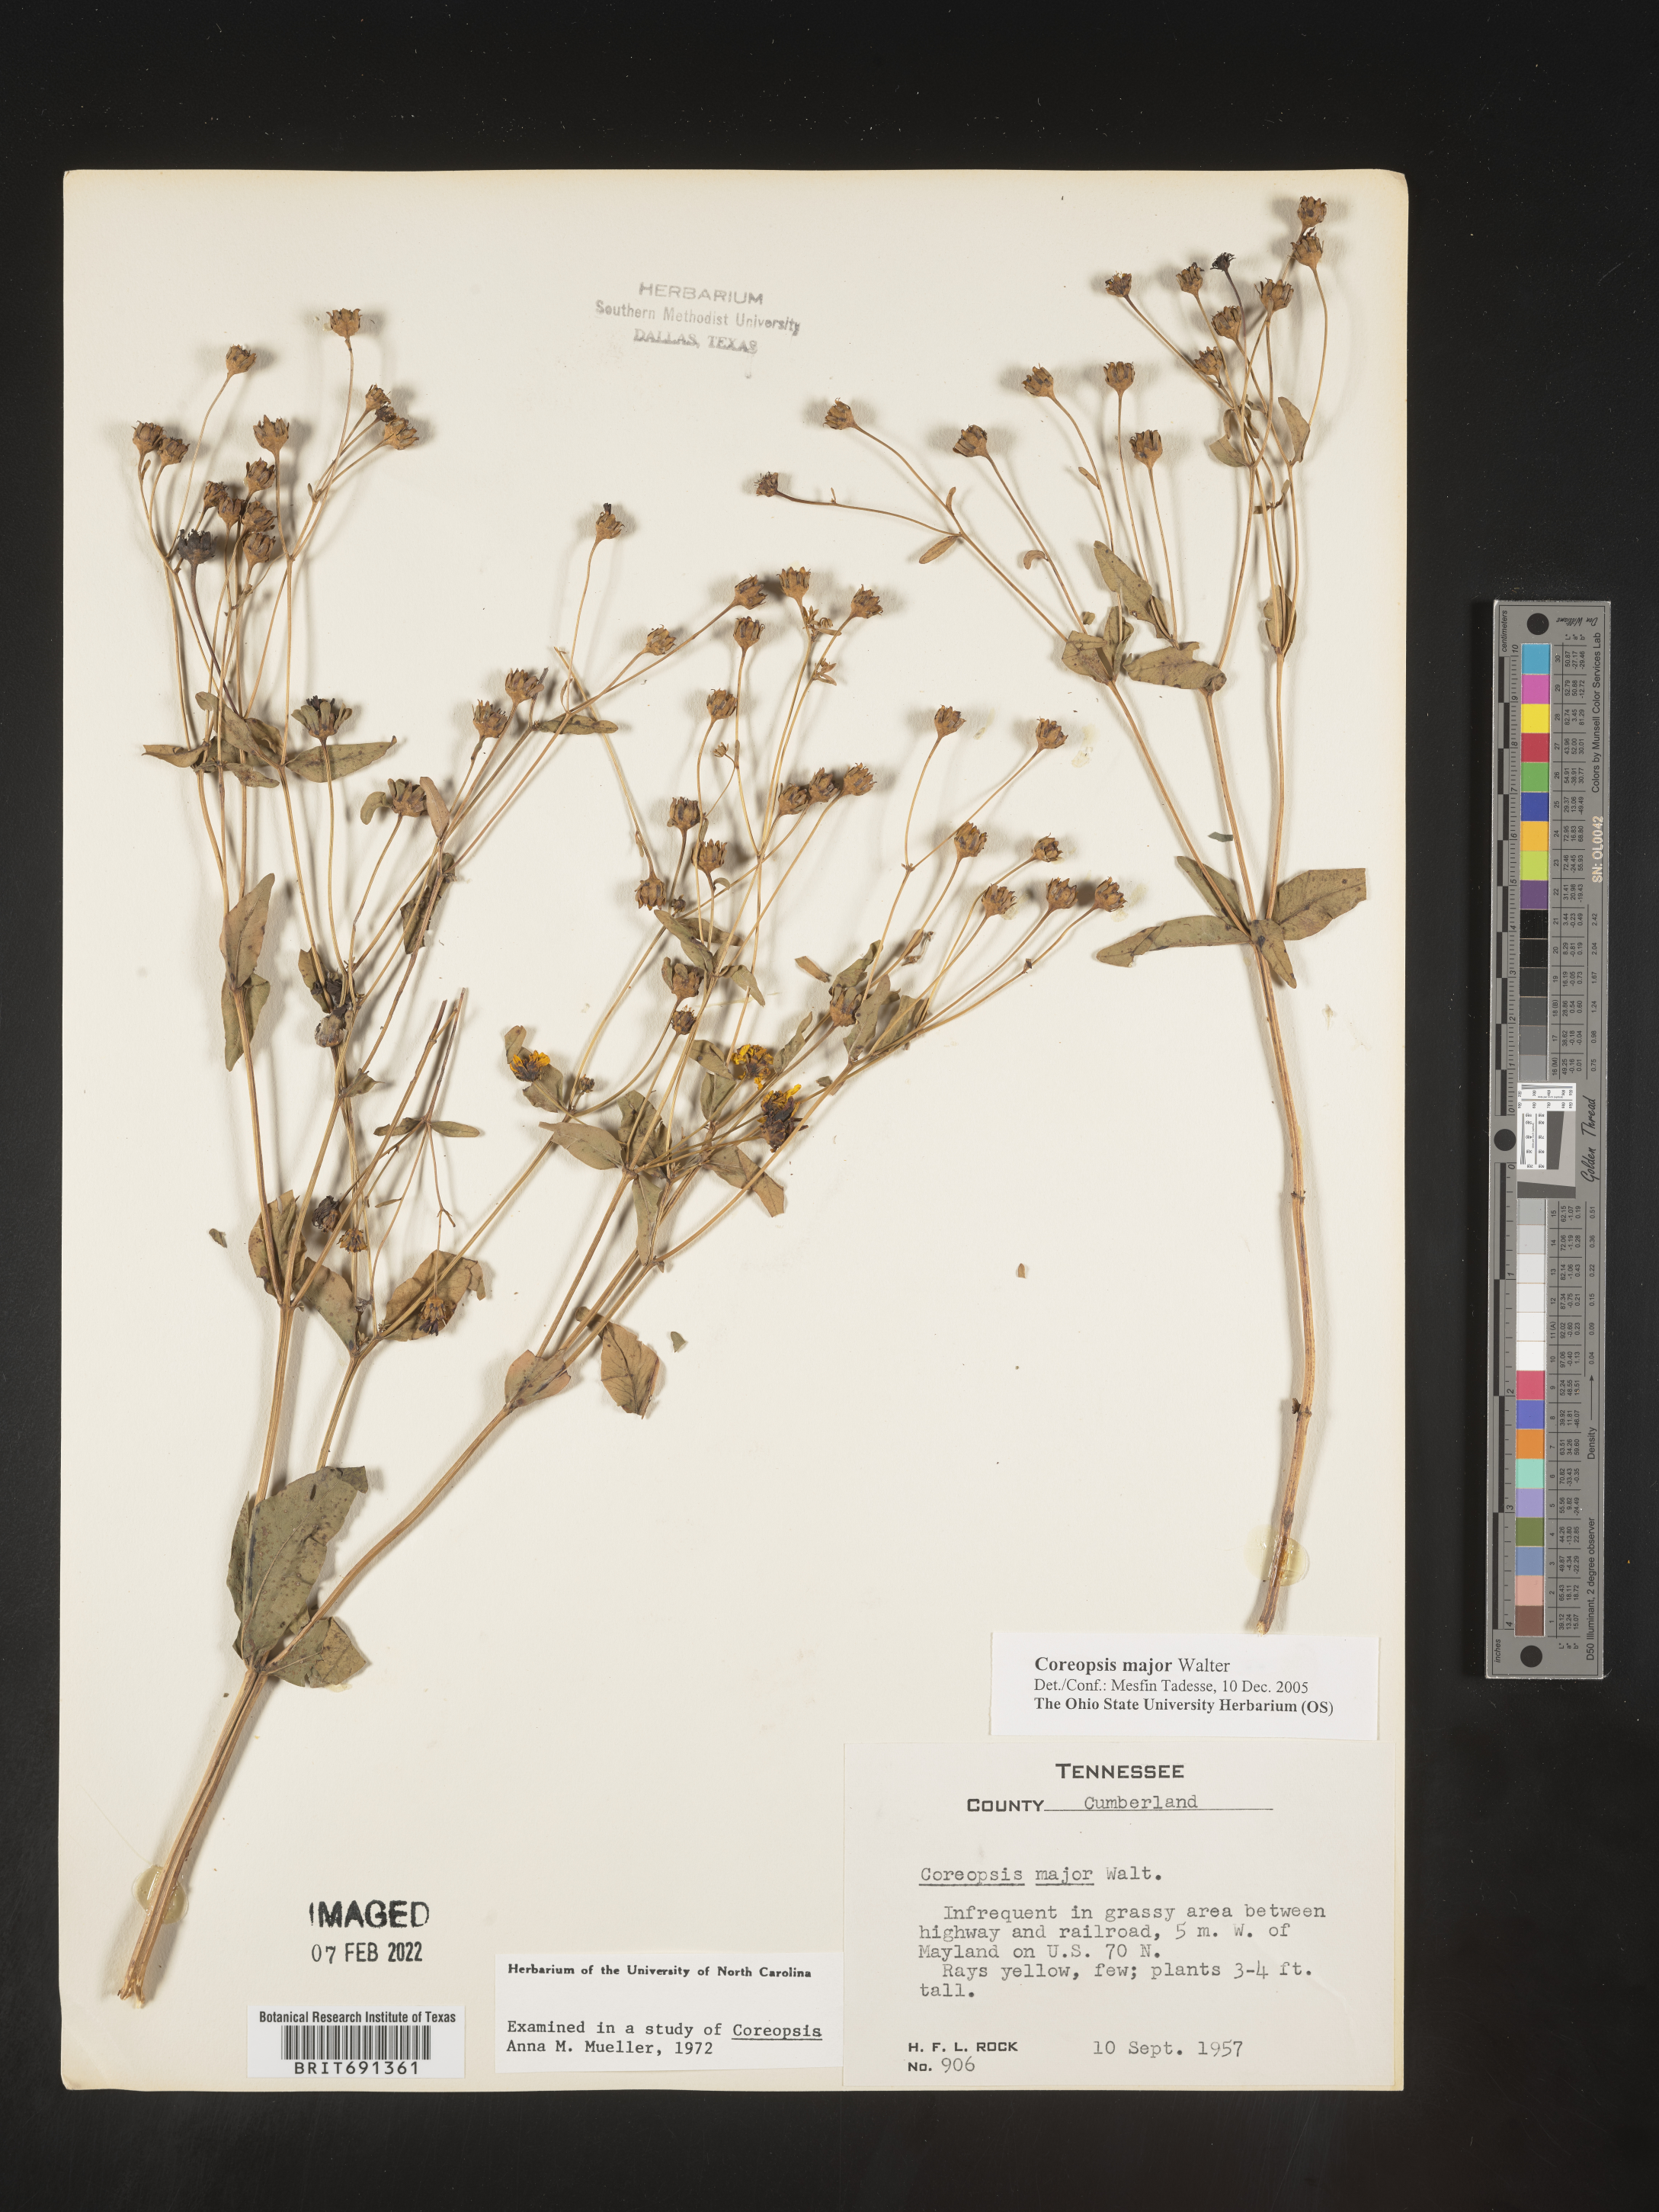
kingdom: Plantae
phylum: Tracheophyta
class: Magnoliopsida
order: Asterales
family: Asteraceae
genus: Coreopsis
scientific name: Coreopsis major
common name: Forest tickseed
